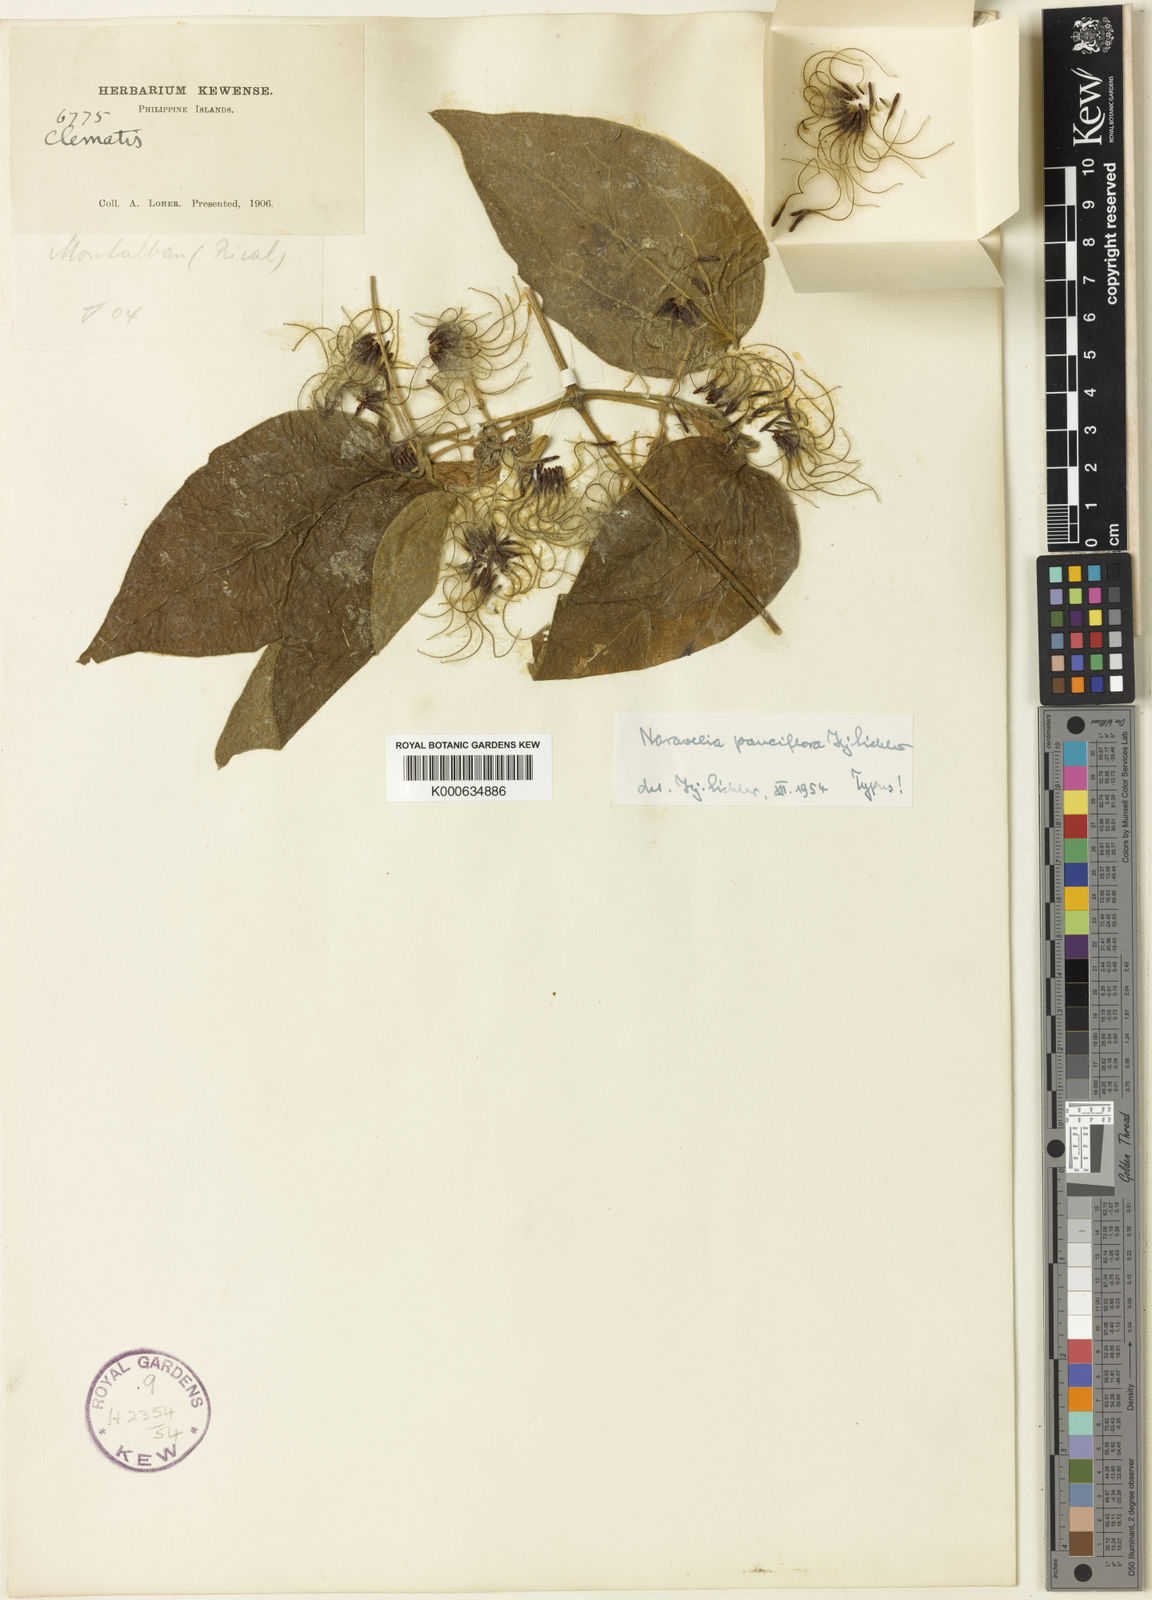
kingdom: Plantae
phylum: Tracheophyta
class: Magnoliopsida
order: Ranunculales
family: Ranunculaceae
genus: Clematis
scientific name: Clematis horripilata
